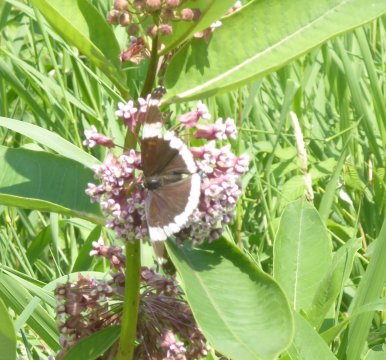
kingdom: Animalia
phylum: Arthropoda
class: Insecta
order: Lepidoptera
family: Nymphalidae
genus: Limenitis
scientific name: Limenitis arthemis
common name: Red-spotted Admiral
